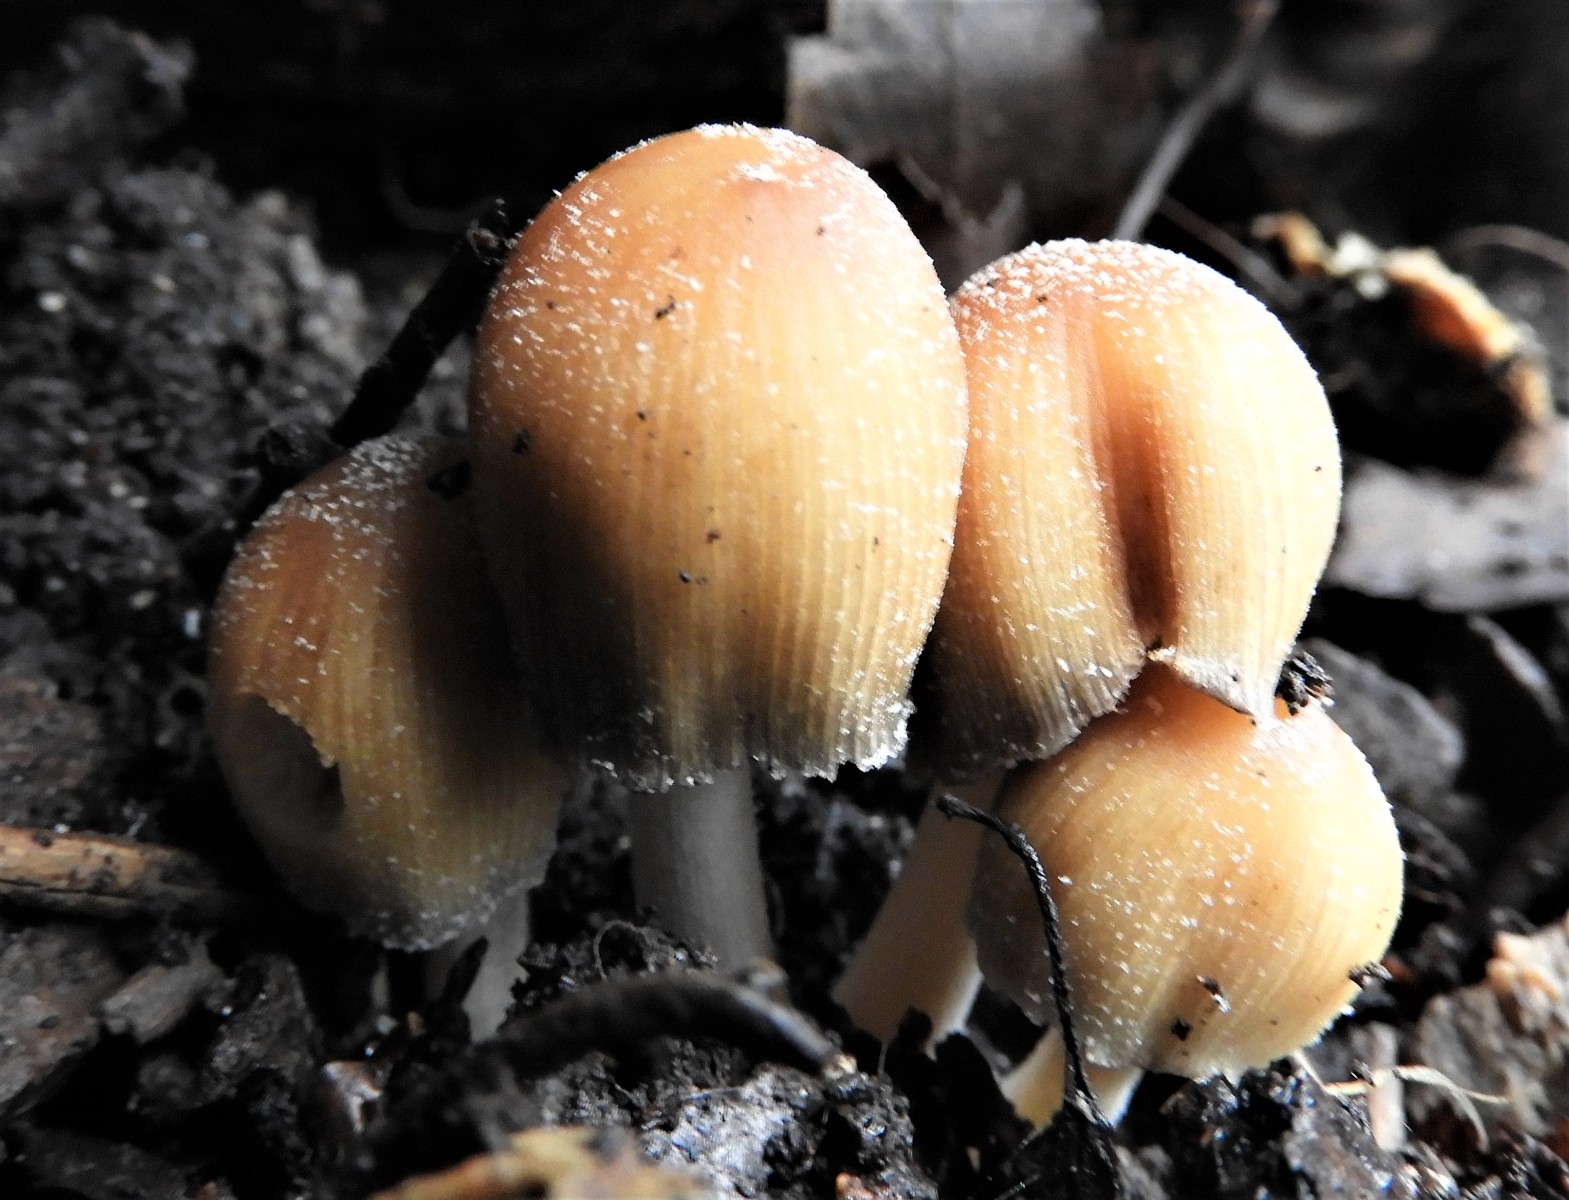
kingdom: Fungi
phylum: Basidiomycota
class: Agaricomycetes
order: Agaricales
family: Psathyrellaceae
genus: Coprinellus
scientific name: Coprinellus micaceus
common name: glimmer-blækhat
